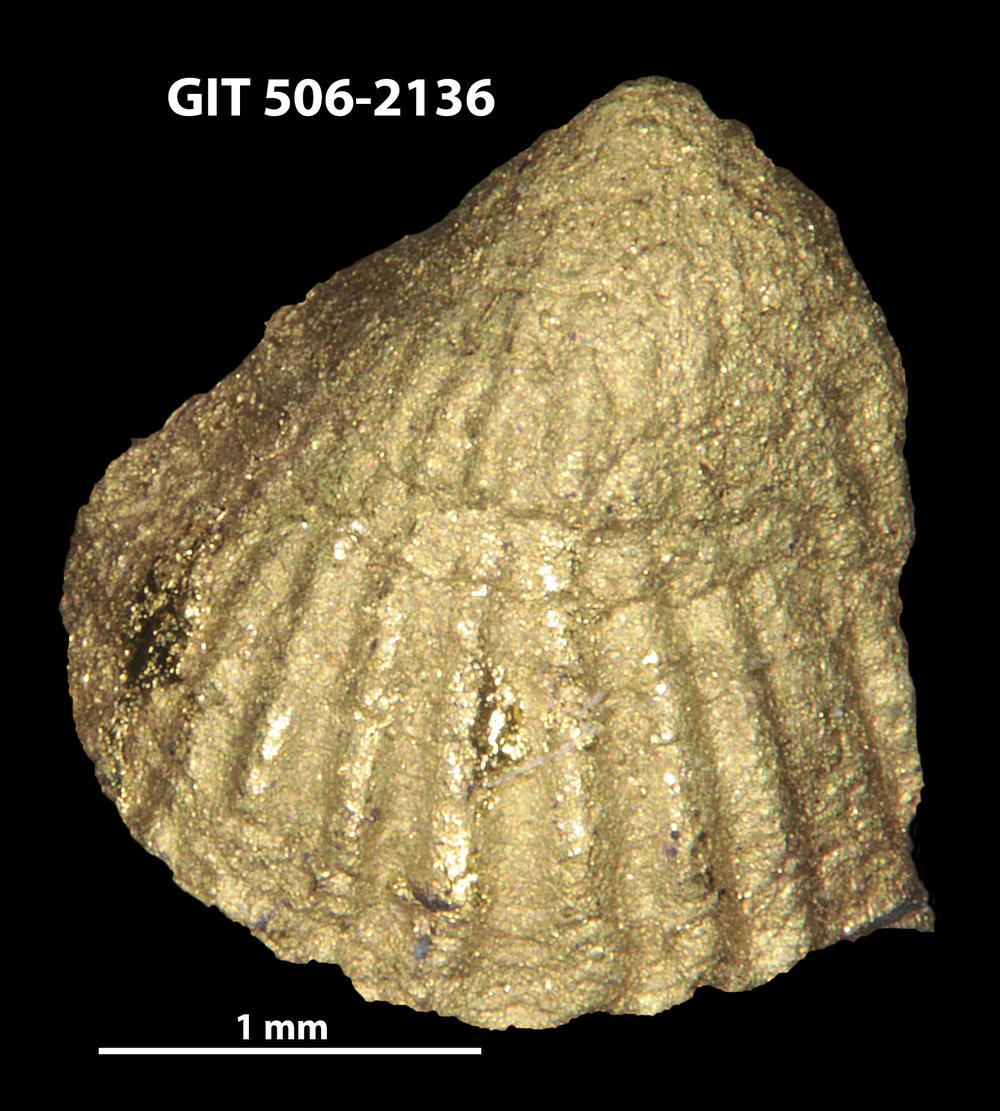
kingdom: Animalia
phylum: Brachiopoda
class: Rhynchonellata
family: Skenidiidae
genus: Skenidioides
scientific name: Skenidioides petrasi
